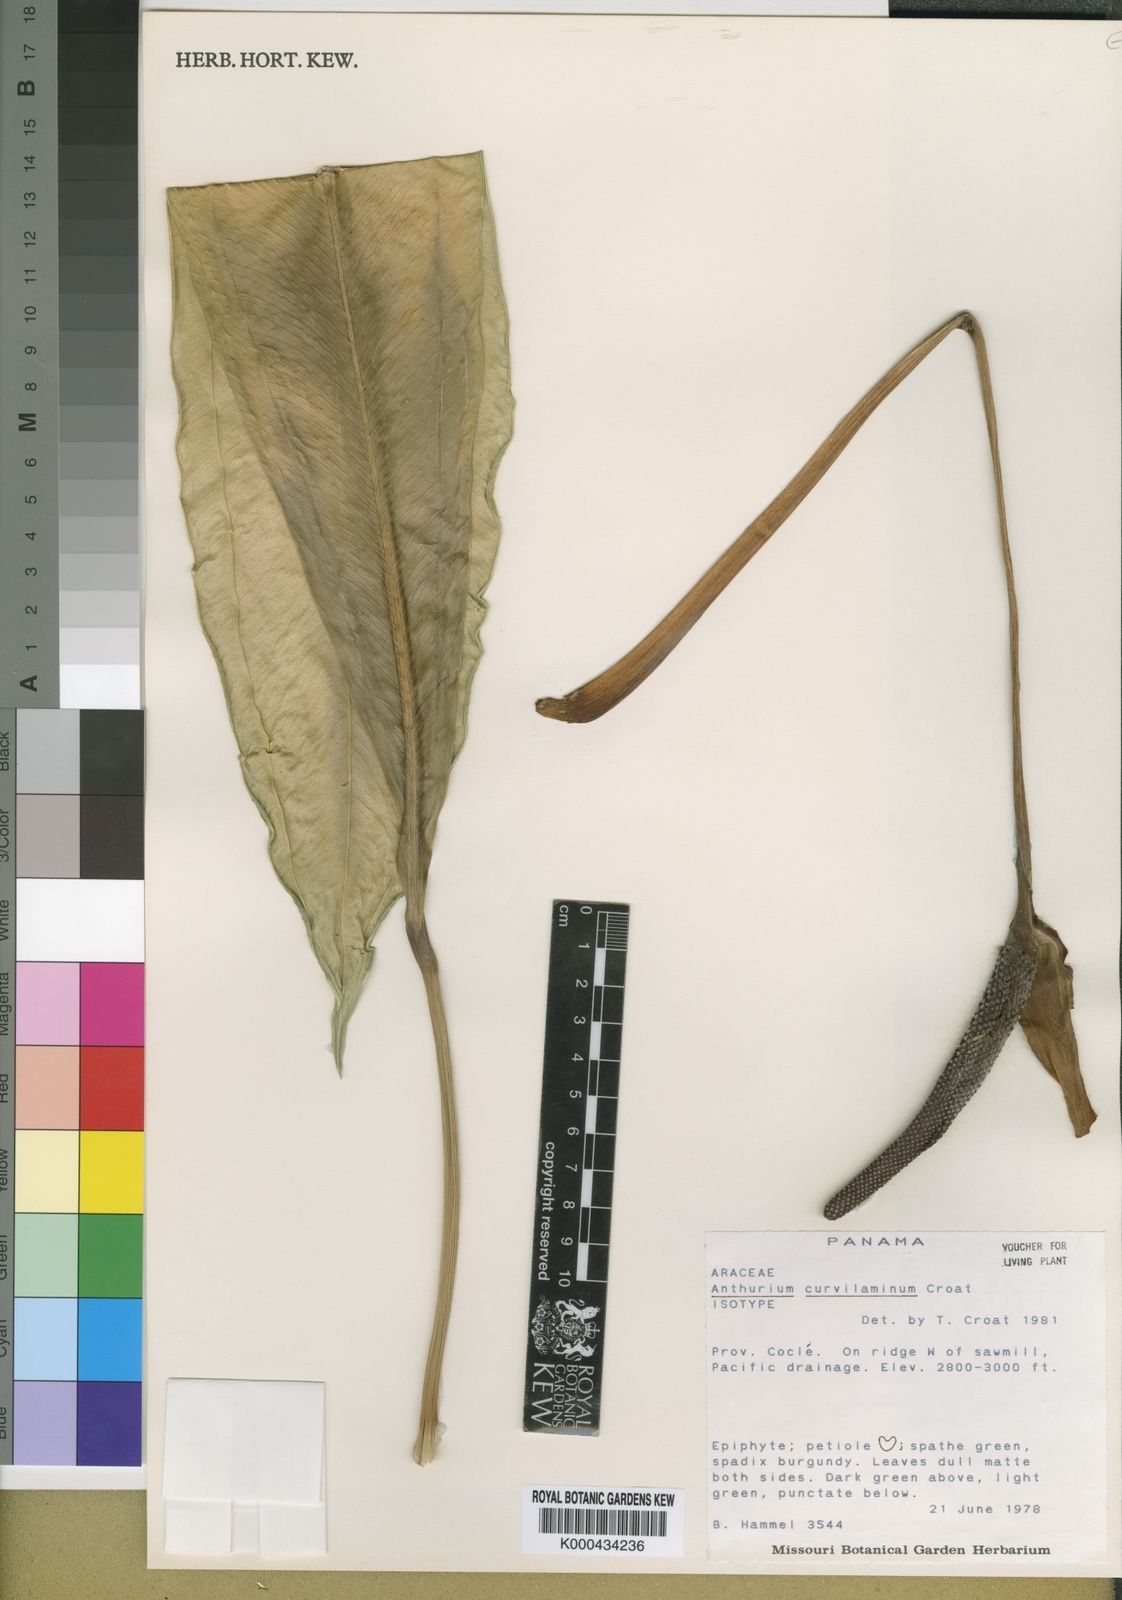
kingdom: Plantae
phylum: Tracheophyta
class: Liliopsida
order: Alismatales
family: Araceae
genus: Anthurium
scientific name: Anthurium curvilaminum
